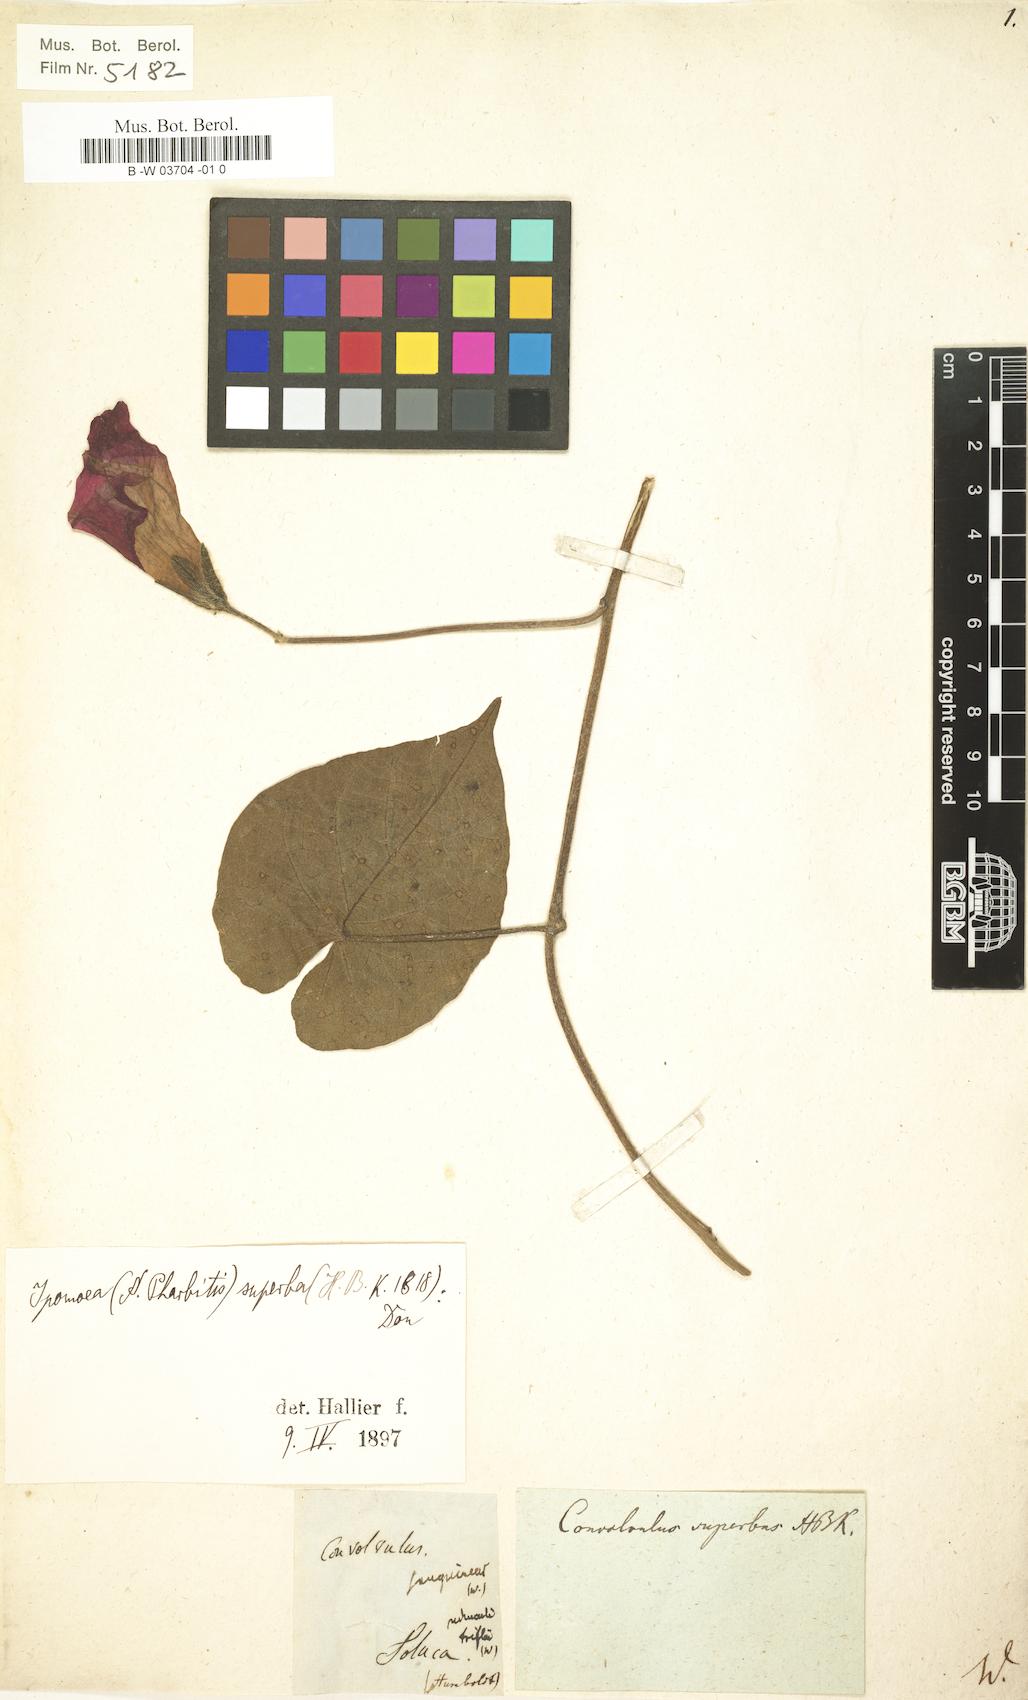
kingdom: Plantae
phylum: Tracheophyta
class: Magnoliopsida
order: Solanales
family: Convolvulaceae
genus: Ipomoea
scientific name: Ipomoea orizabensis
